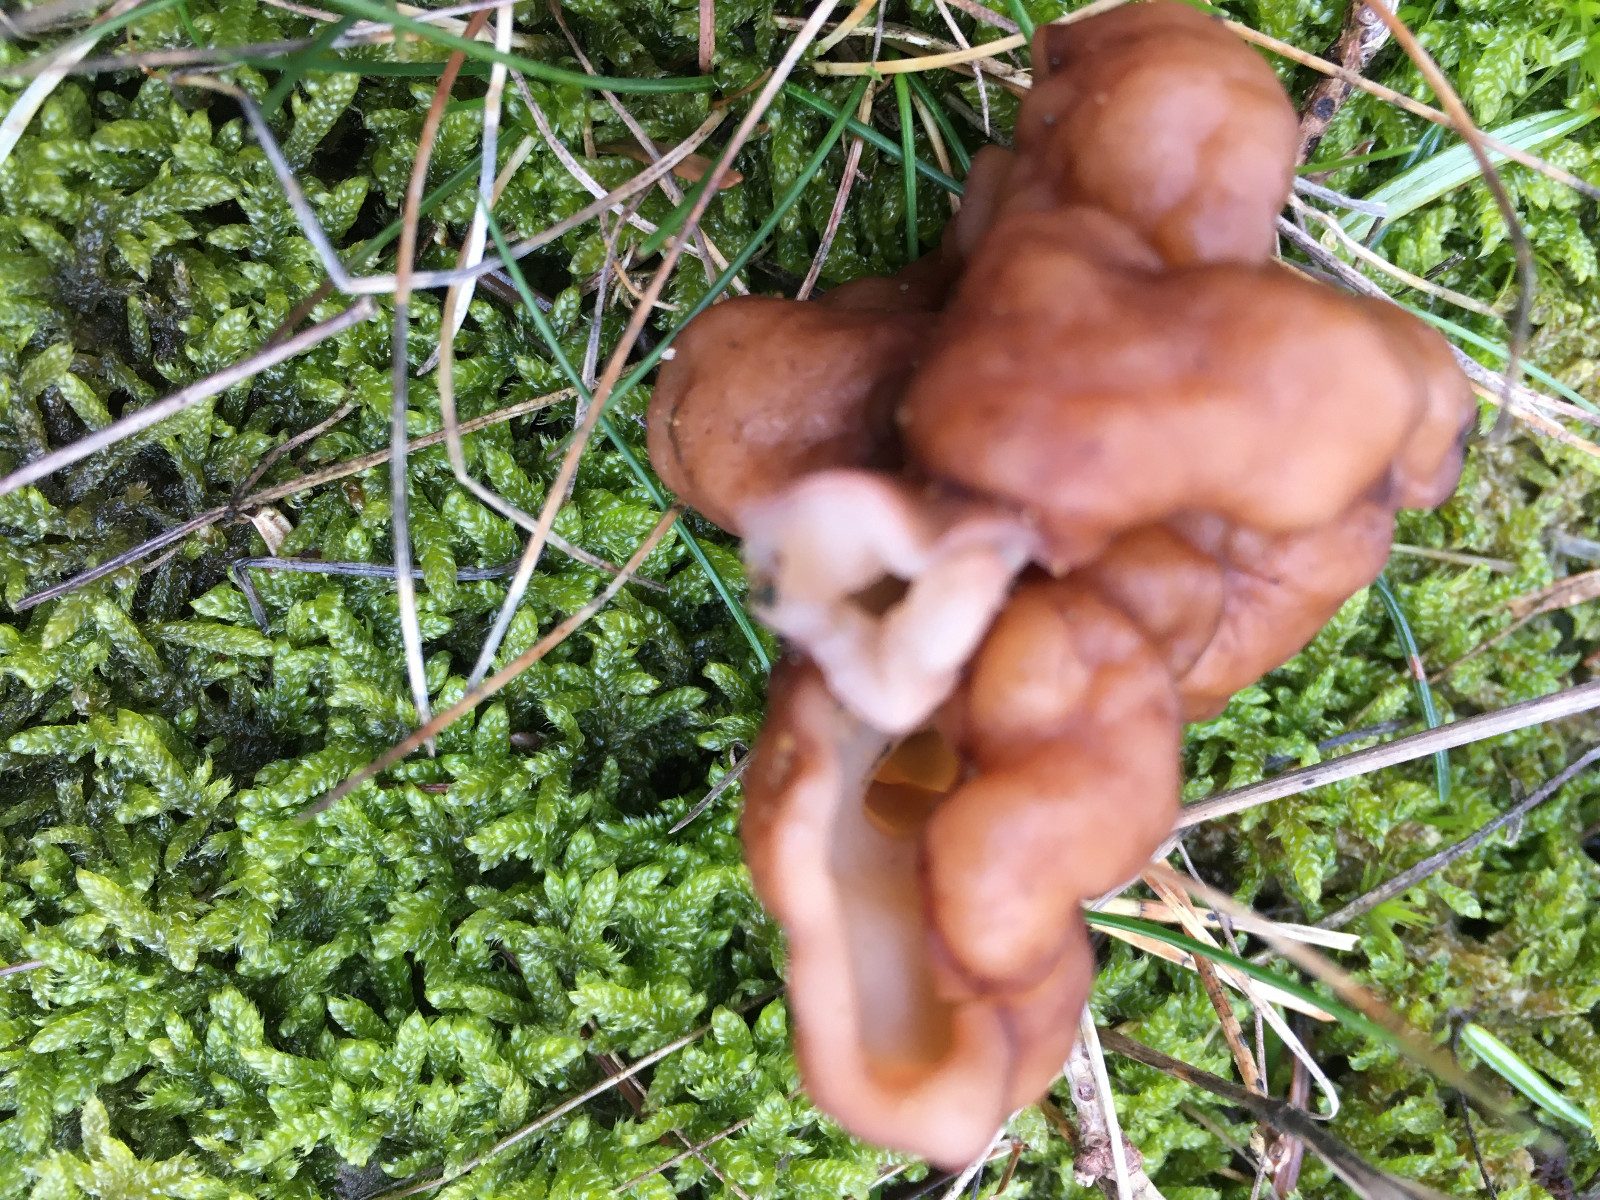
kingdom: Fungi
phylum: Ascomycota
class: Pezizomycetes
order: Pezizales
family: Discinaceae
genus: Gyromitra
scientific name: Gyromitra esculenta
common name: ægte stenmorkel
